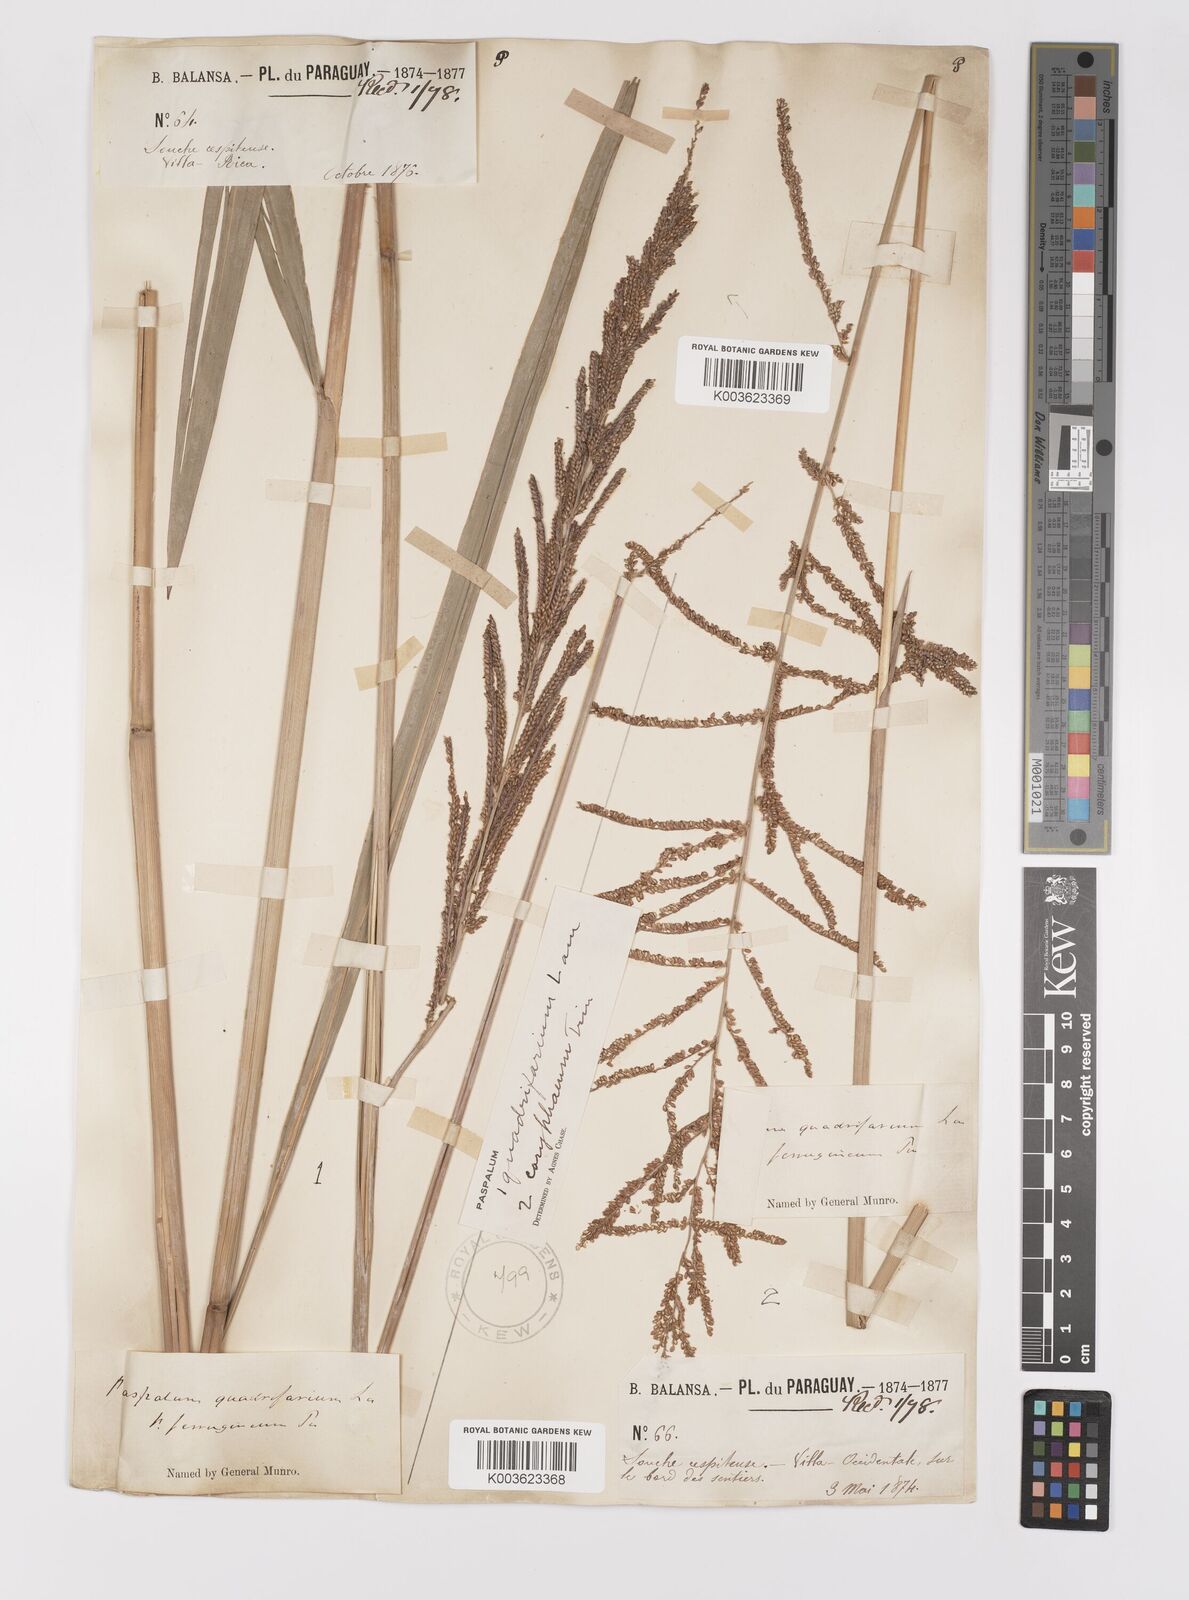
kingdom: Plantae
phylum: Tracheophyta
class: Liliopsida
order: Poales
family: Poaceae
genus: Paspalum
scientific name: Paspalum quadrifarium
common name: Tussock paspalum
